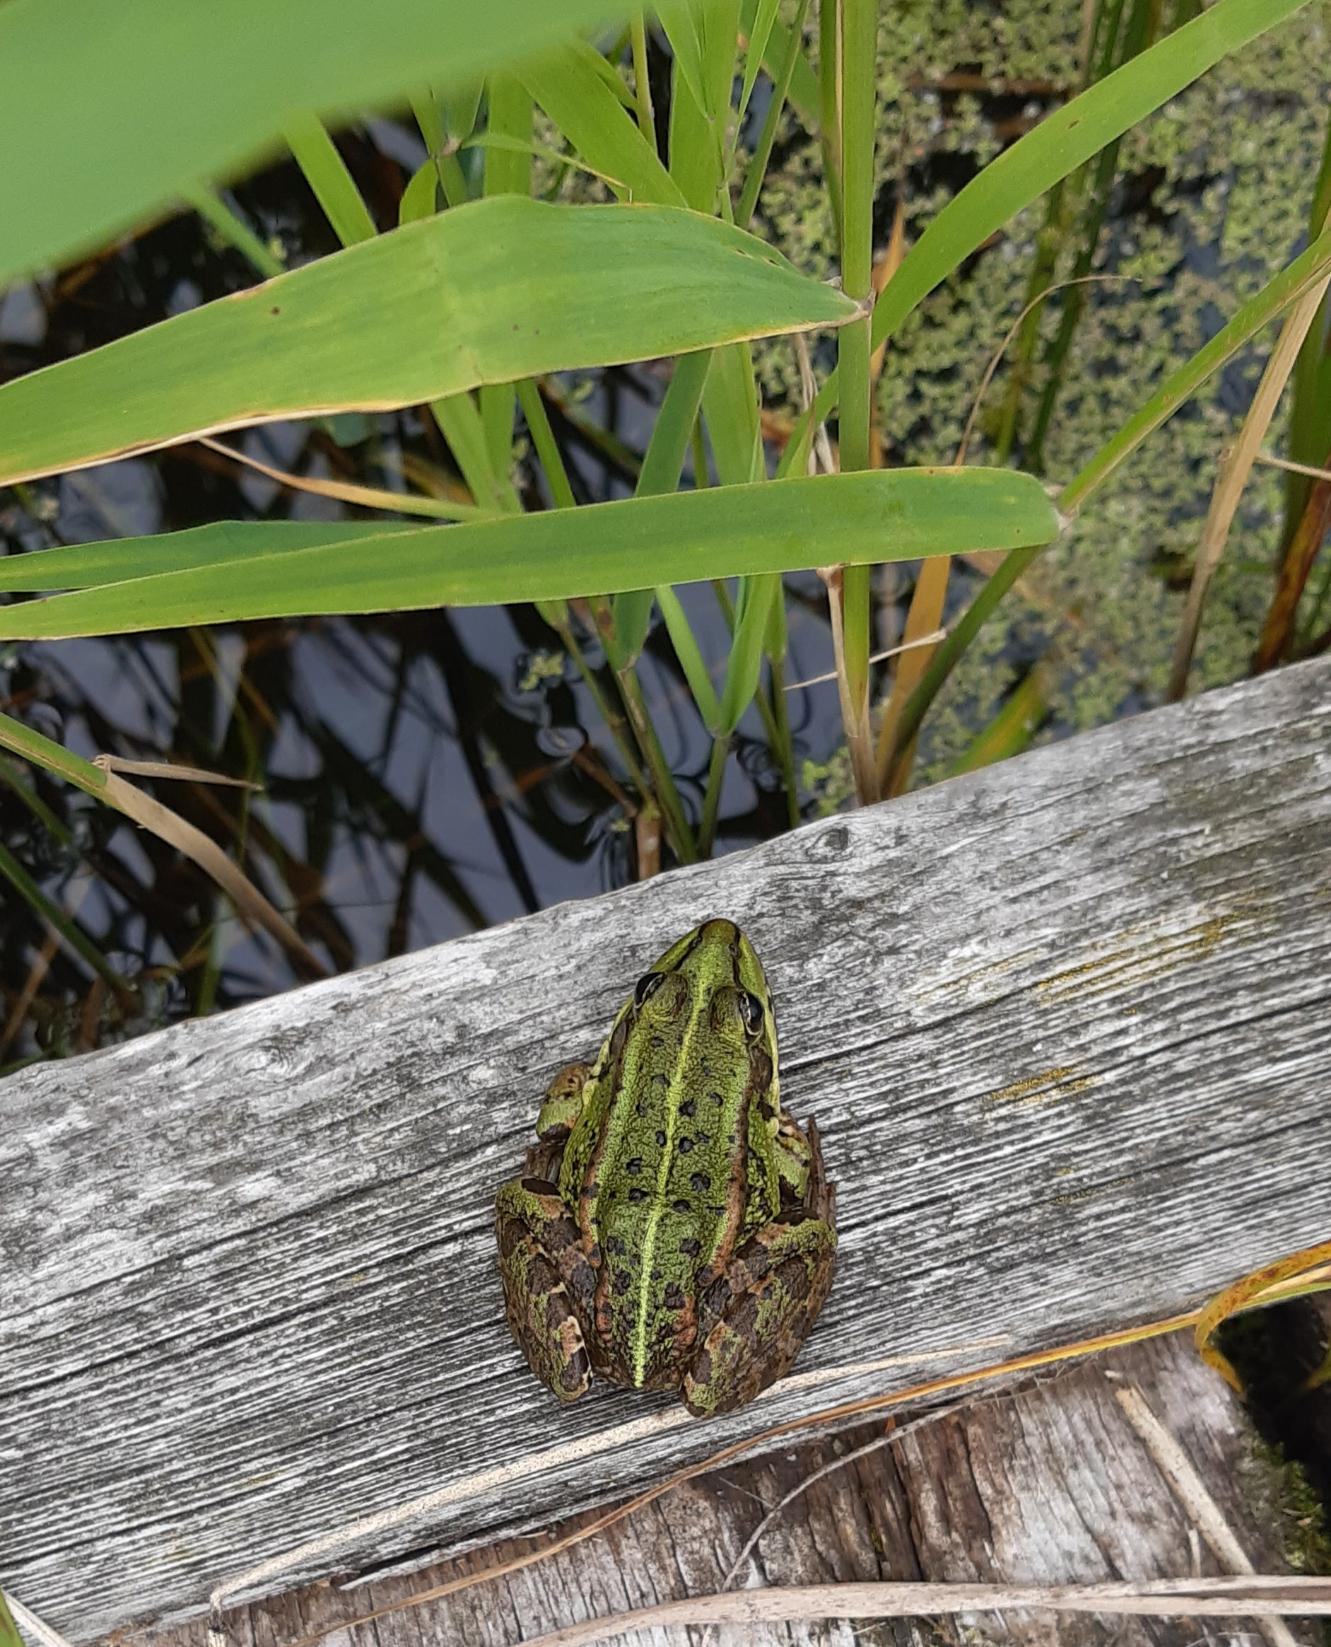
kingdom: Animalia
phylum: Chordata
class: Amphibia
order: Anura
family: Ranidae
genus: Pelophylax
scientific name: Pelophylax lessonae
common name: Grøn frø
